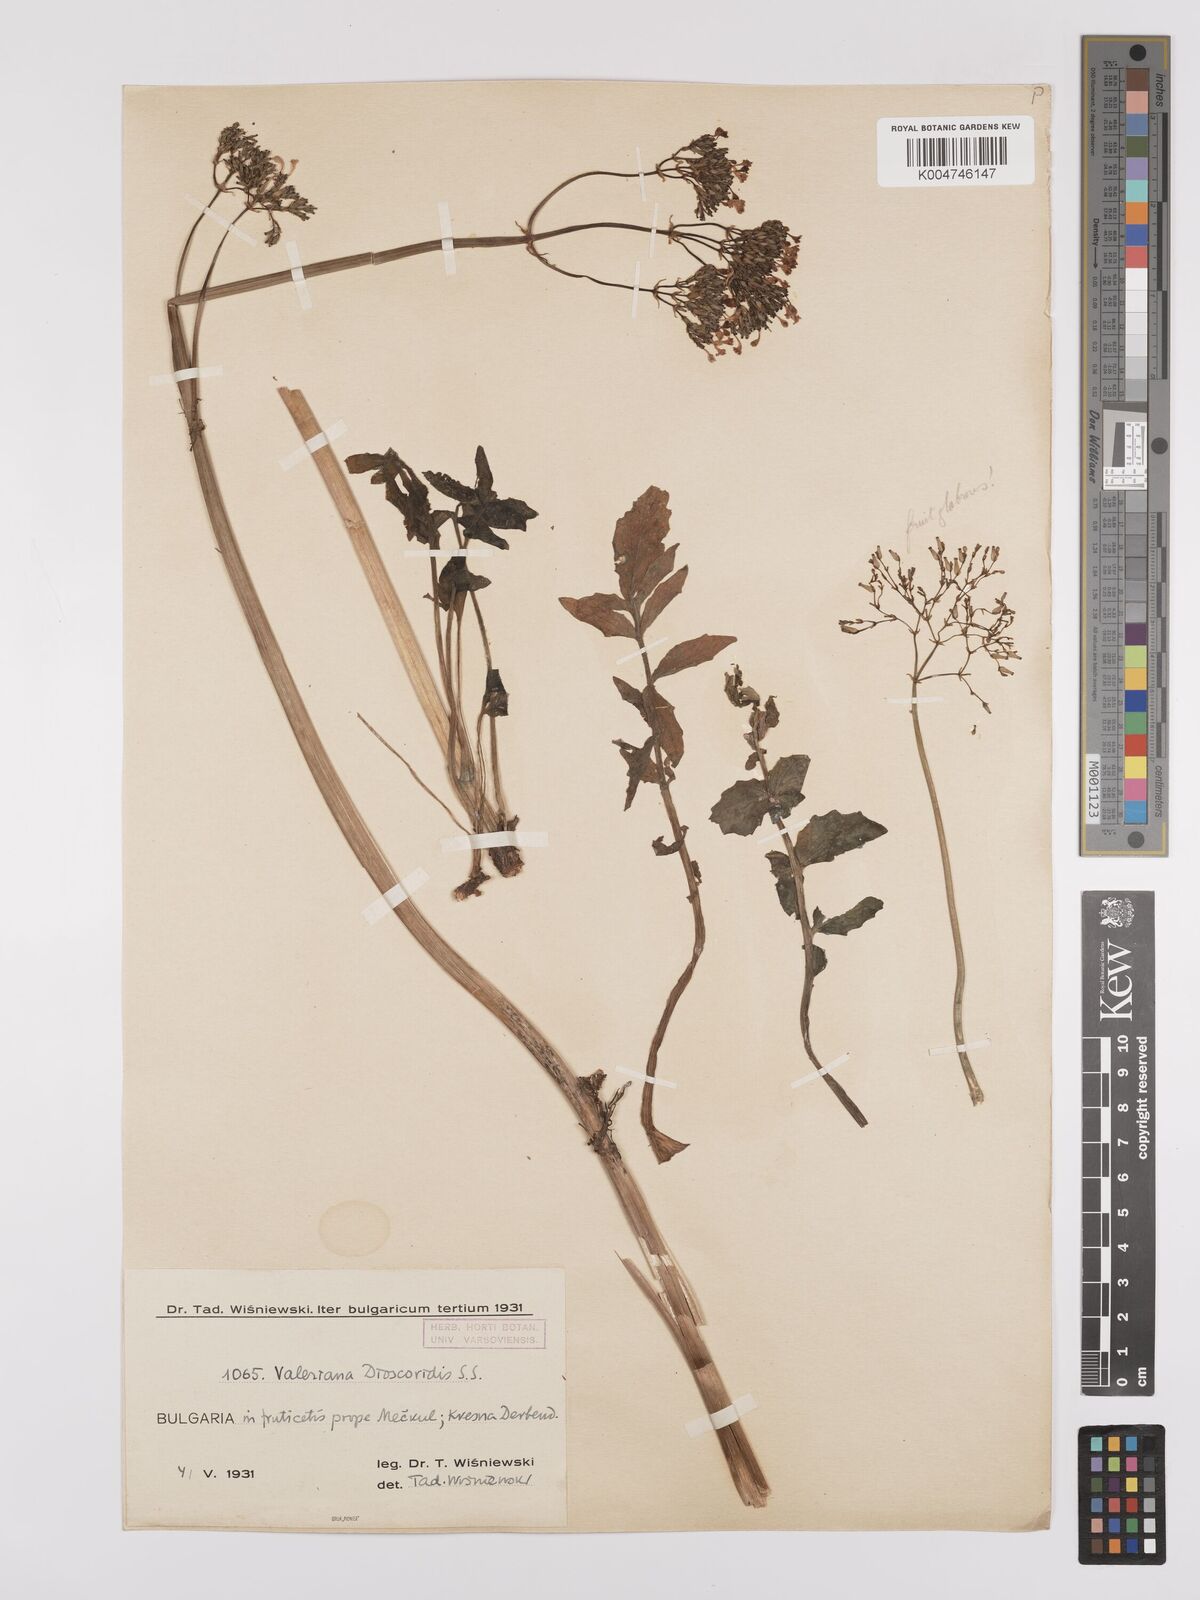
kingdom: Plantae
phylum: Tracheophyta
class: Magnoliopsida
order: Dipsacales
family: Caprifoliaceae
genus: Valeriana
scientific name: Valeriana dioscoridis
